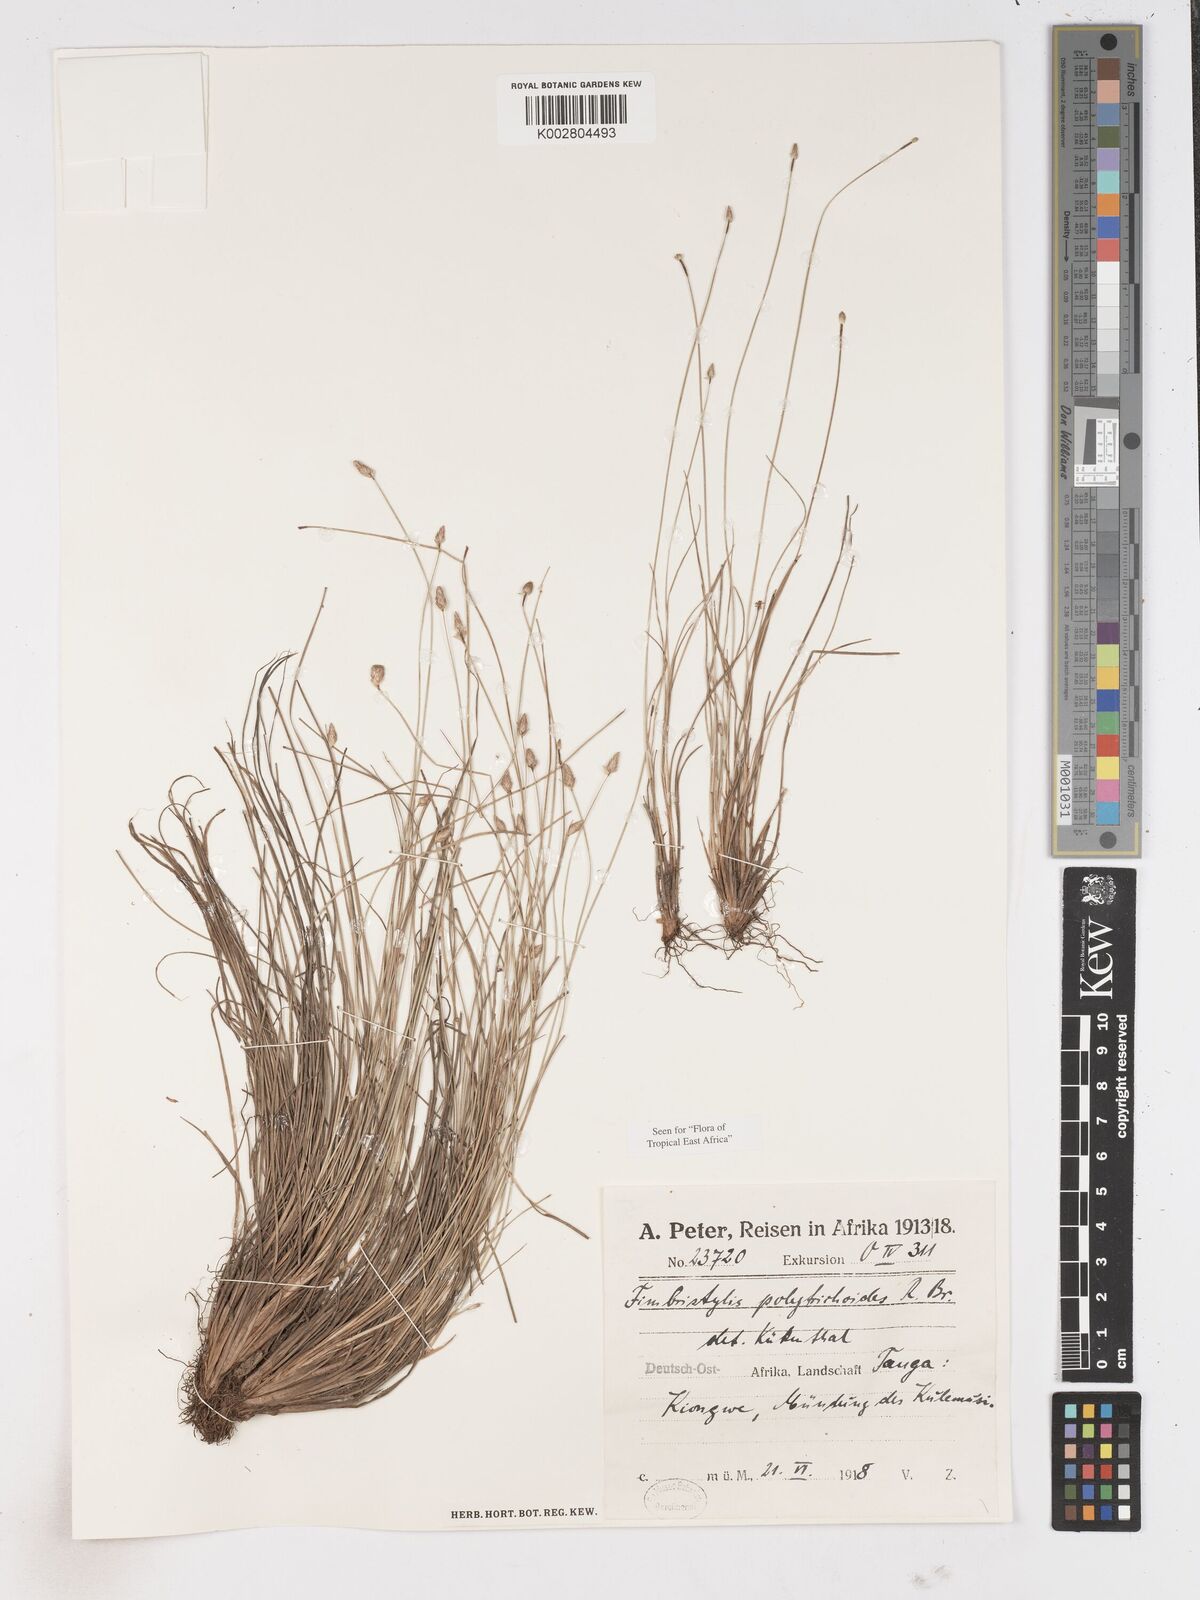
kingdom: Plantae
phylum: Tracheophyta
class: Liliopsida
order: Poales
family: Cyperaceae
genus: Fimbristylis
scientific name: Fimbristylis polytrichoides
